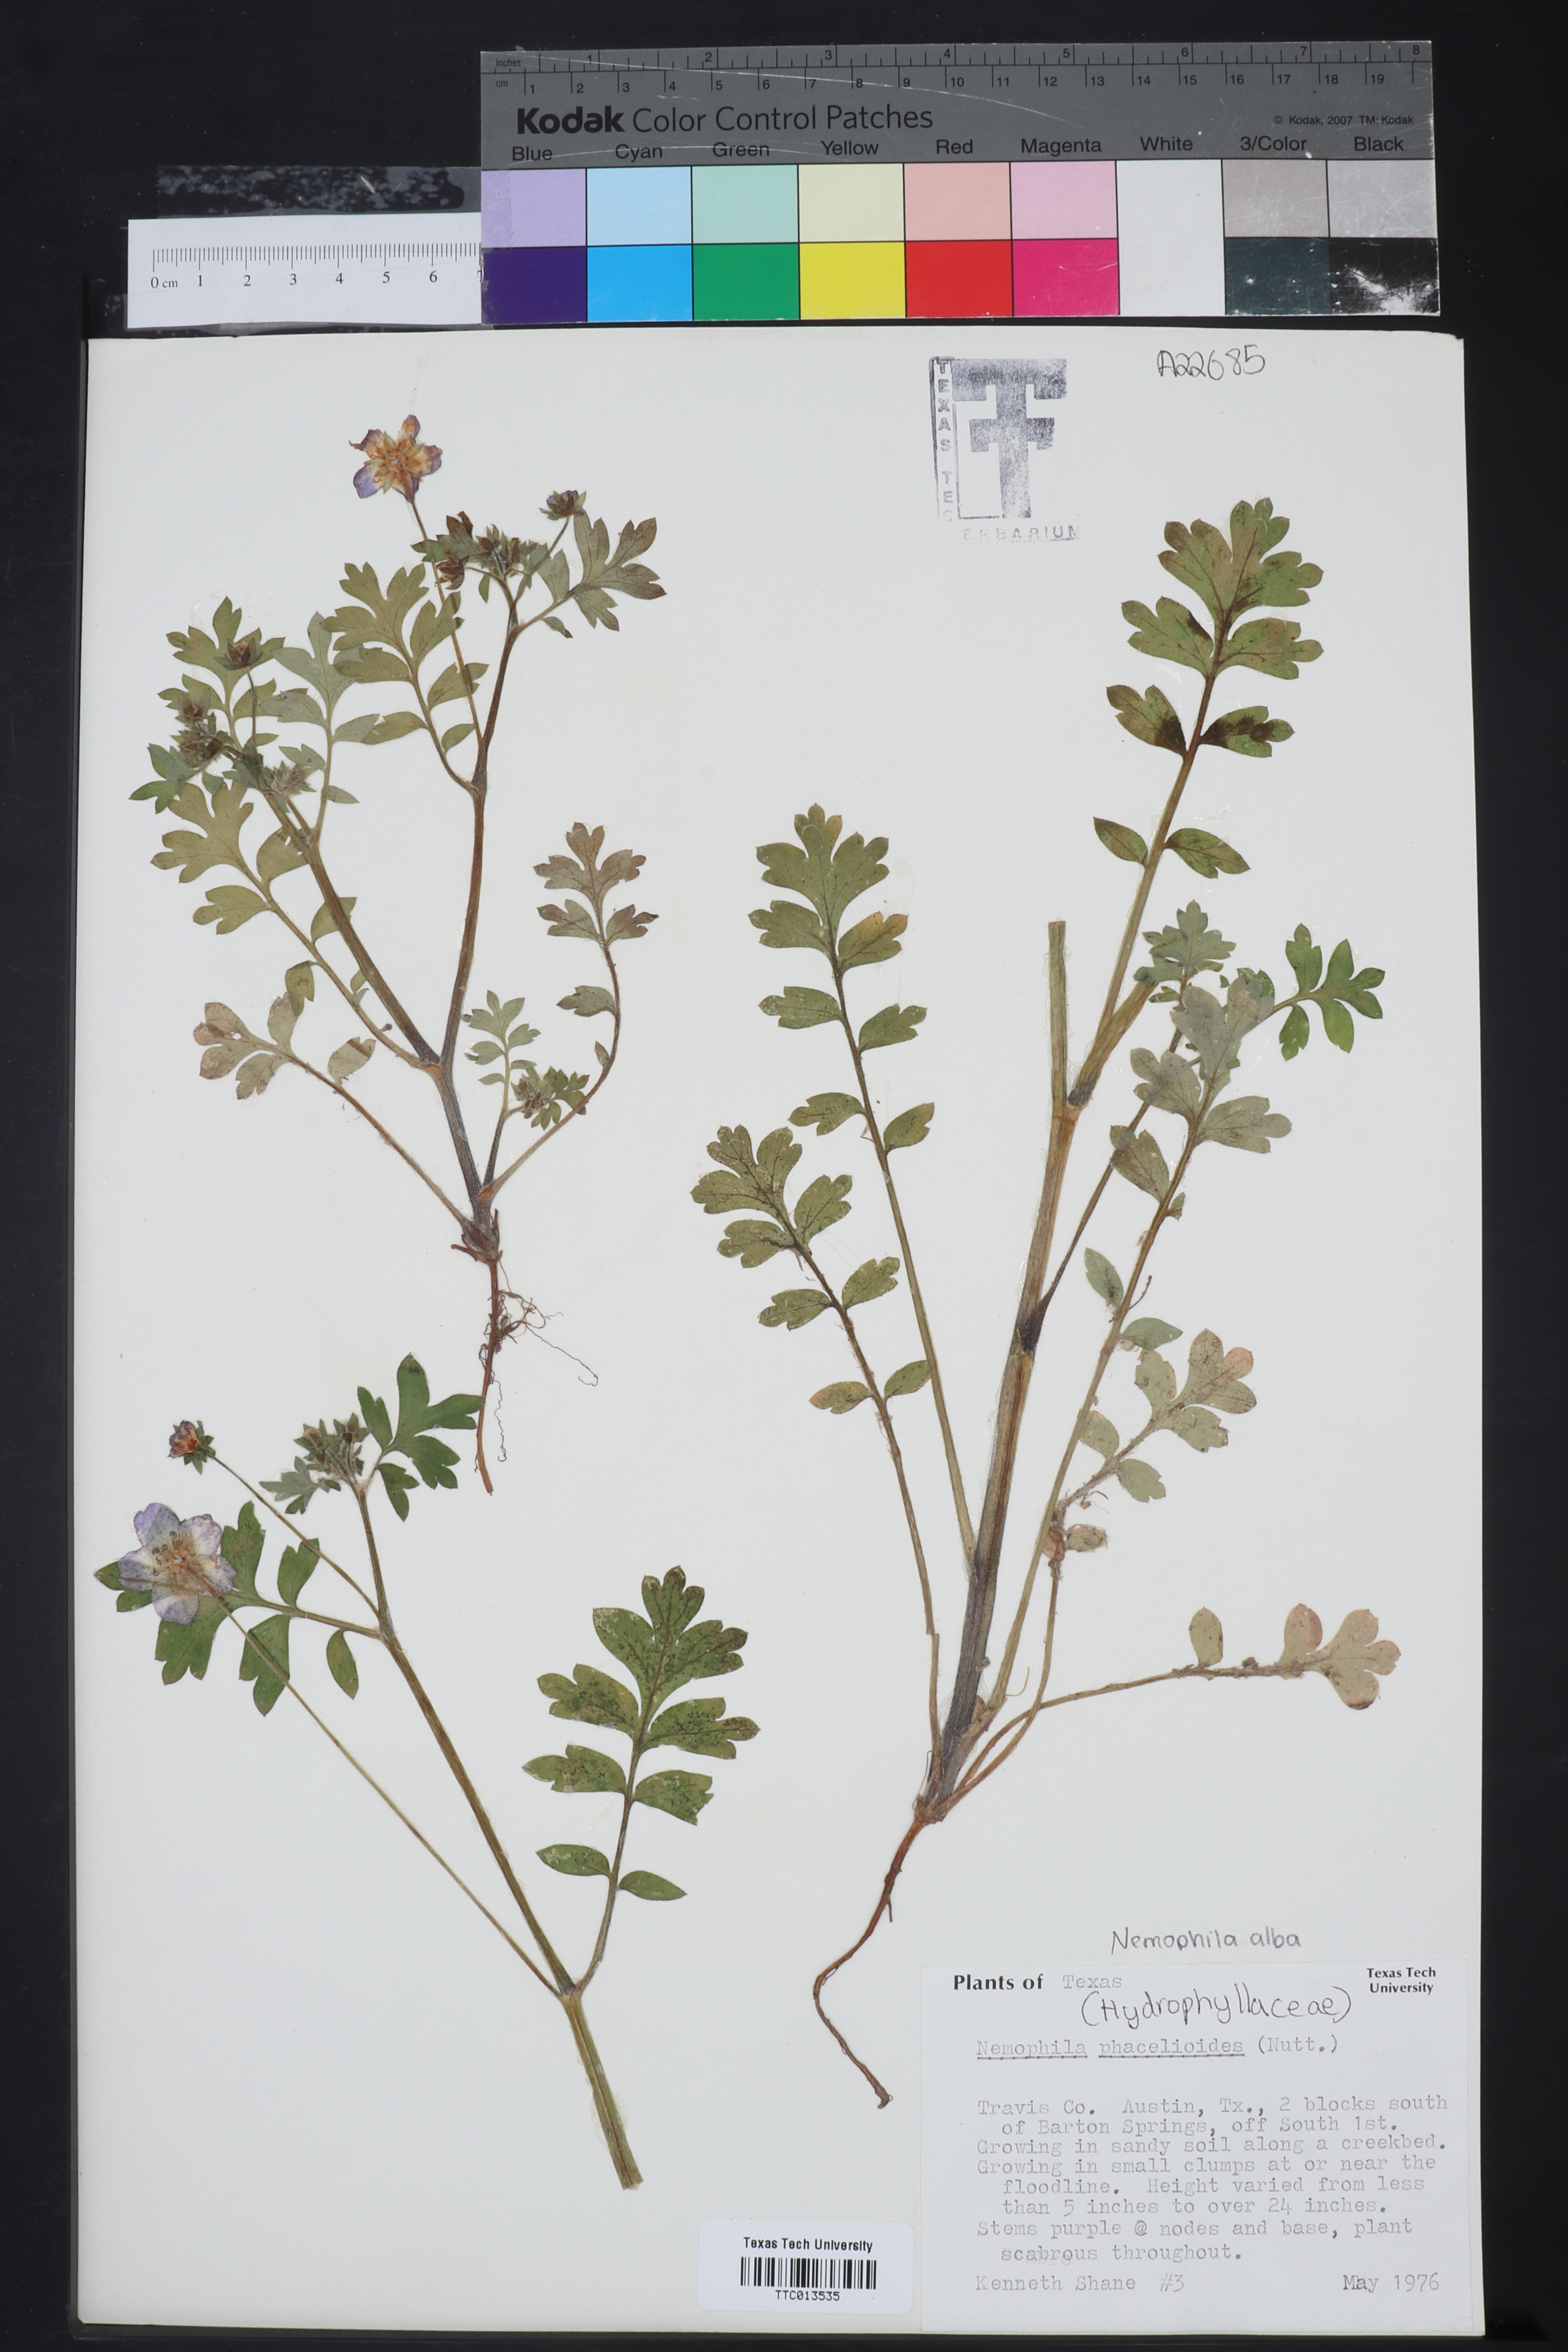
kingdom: Plantae
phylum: Tracheophyta
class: Magnoliopsida
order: Boraginales
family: Hydrophyllaceae
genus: Nemophila
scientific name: Nemophila phacelioides
